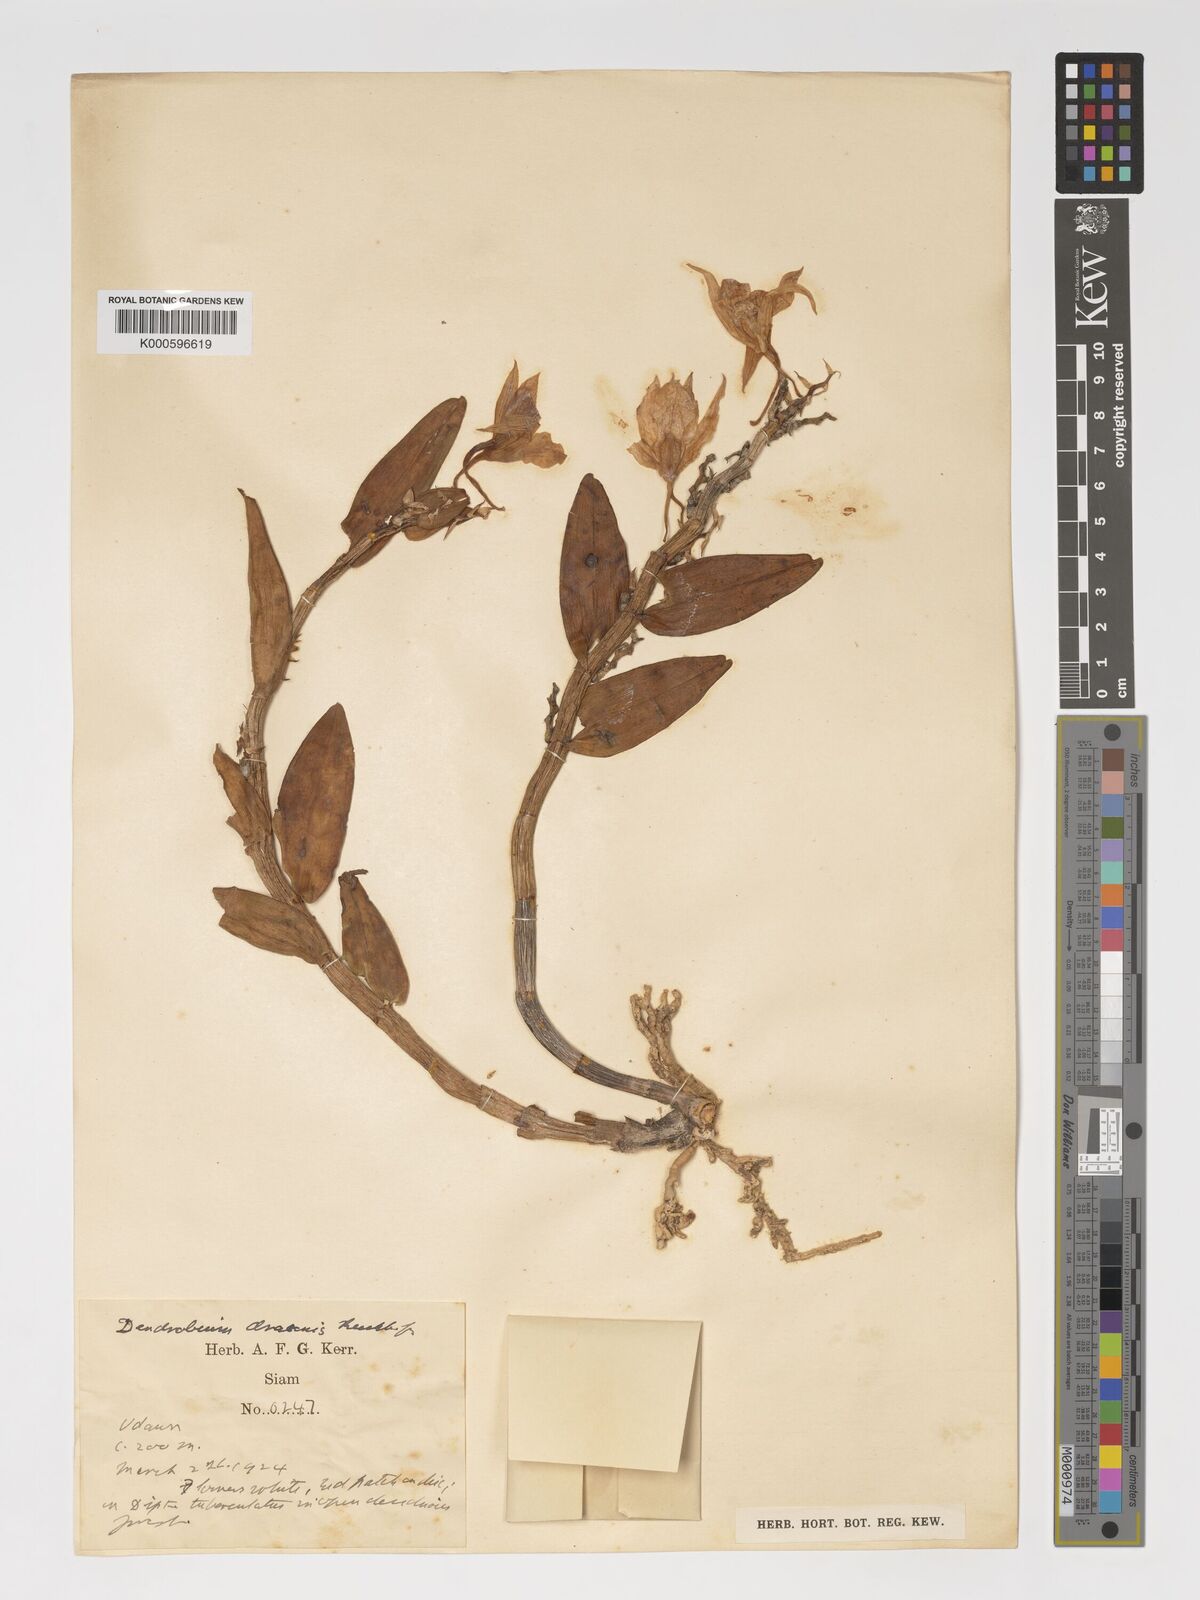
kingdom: Plantae
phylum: Tracheophyta
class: Liliopsida
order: Asparagales
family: Orchidaceae
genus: Dendrobium
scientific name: Dendrobium draconis
